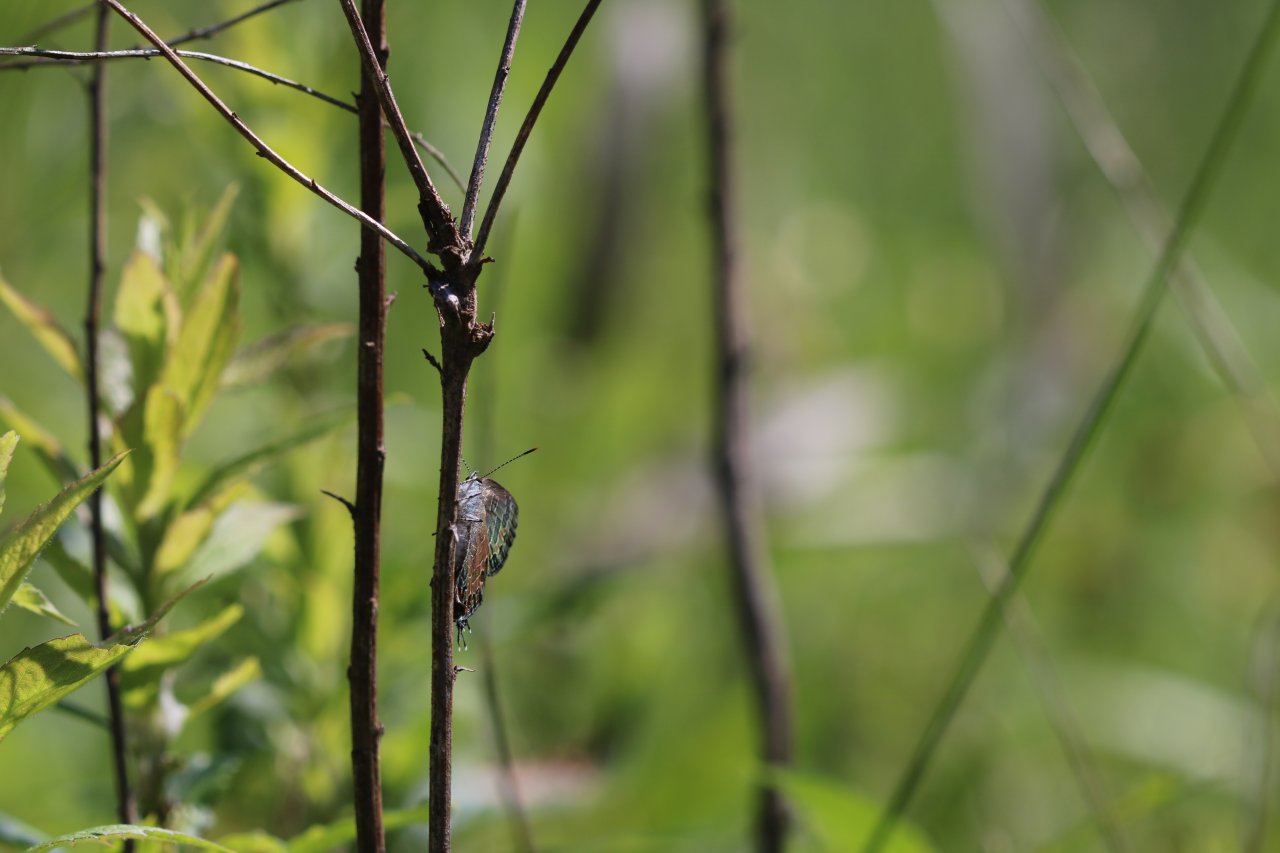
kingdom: Animalia
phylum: Arthropoda
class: Insecta
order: Lepidoptera
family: Lycaenidae
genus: Satyrium
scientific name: Satyrium calanus
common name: Banded Hairstreak
